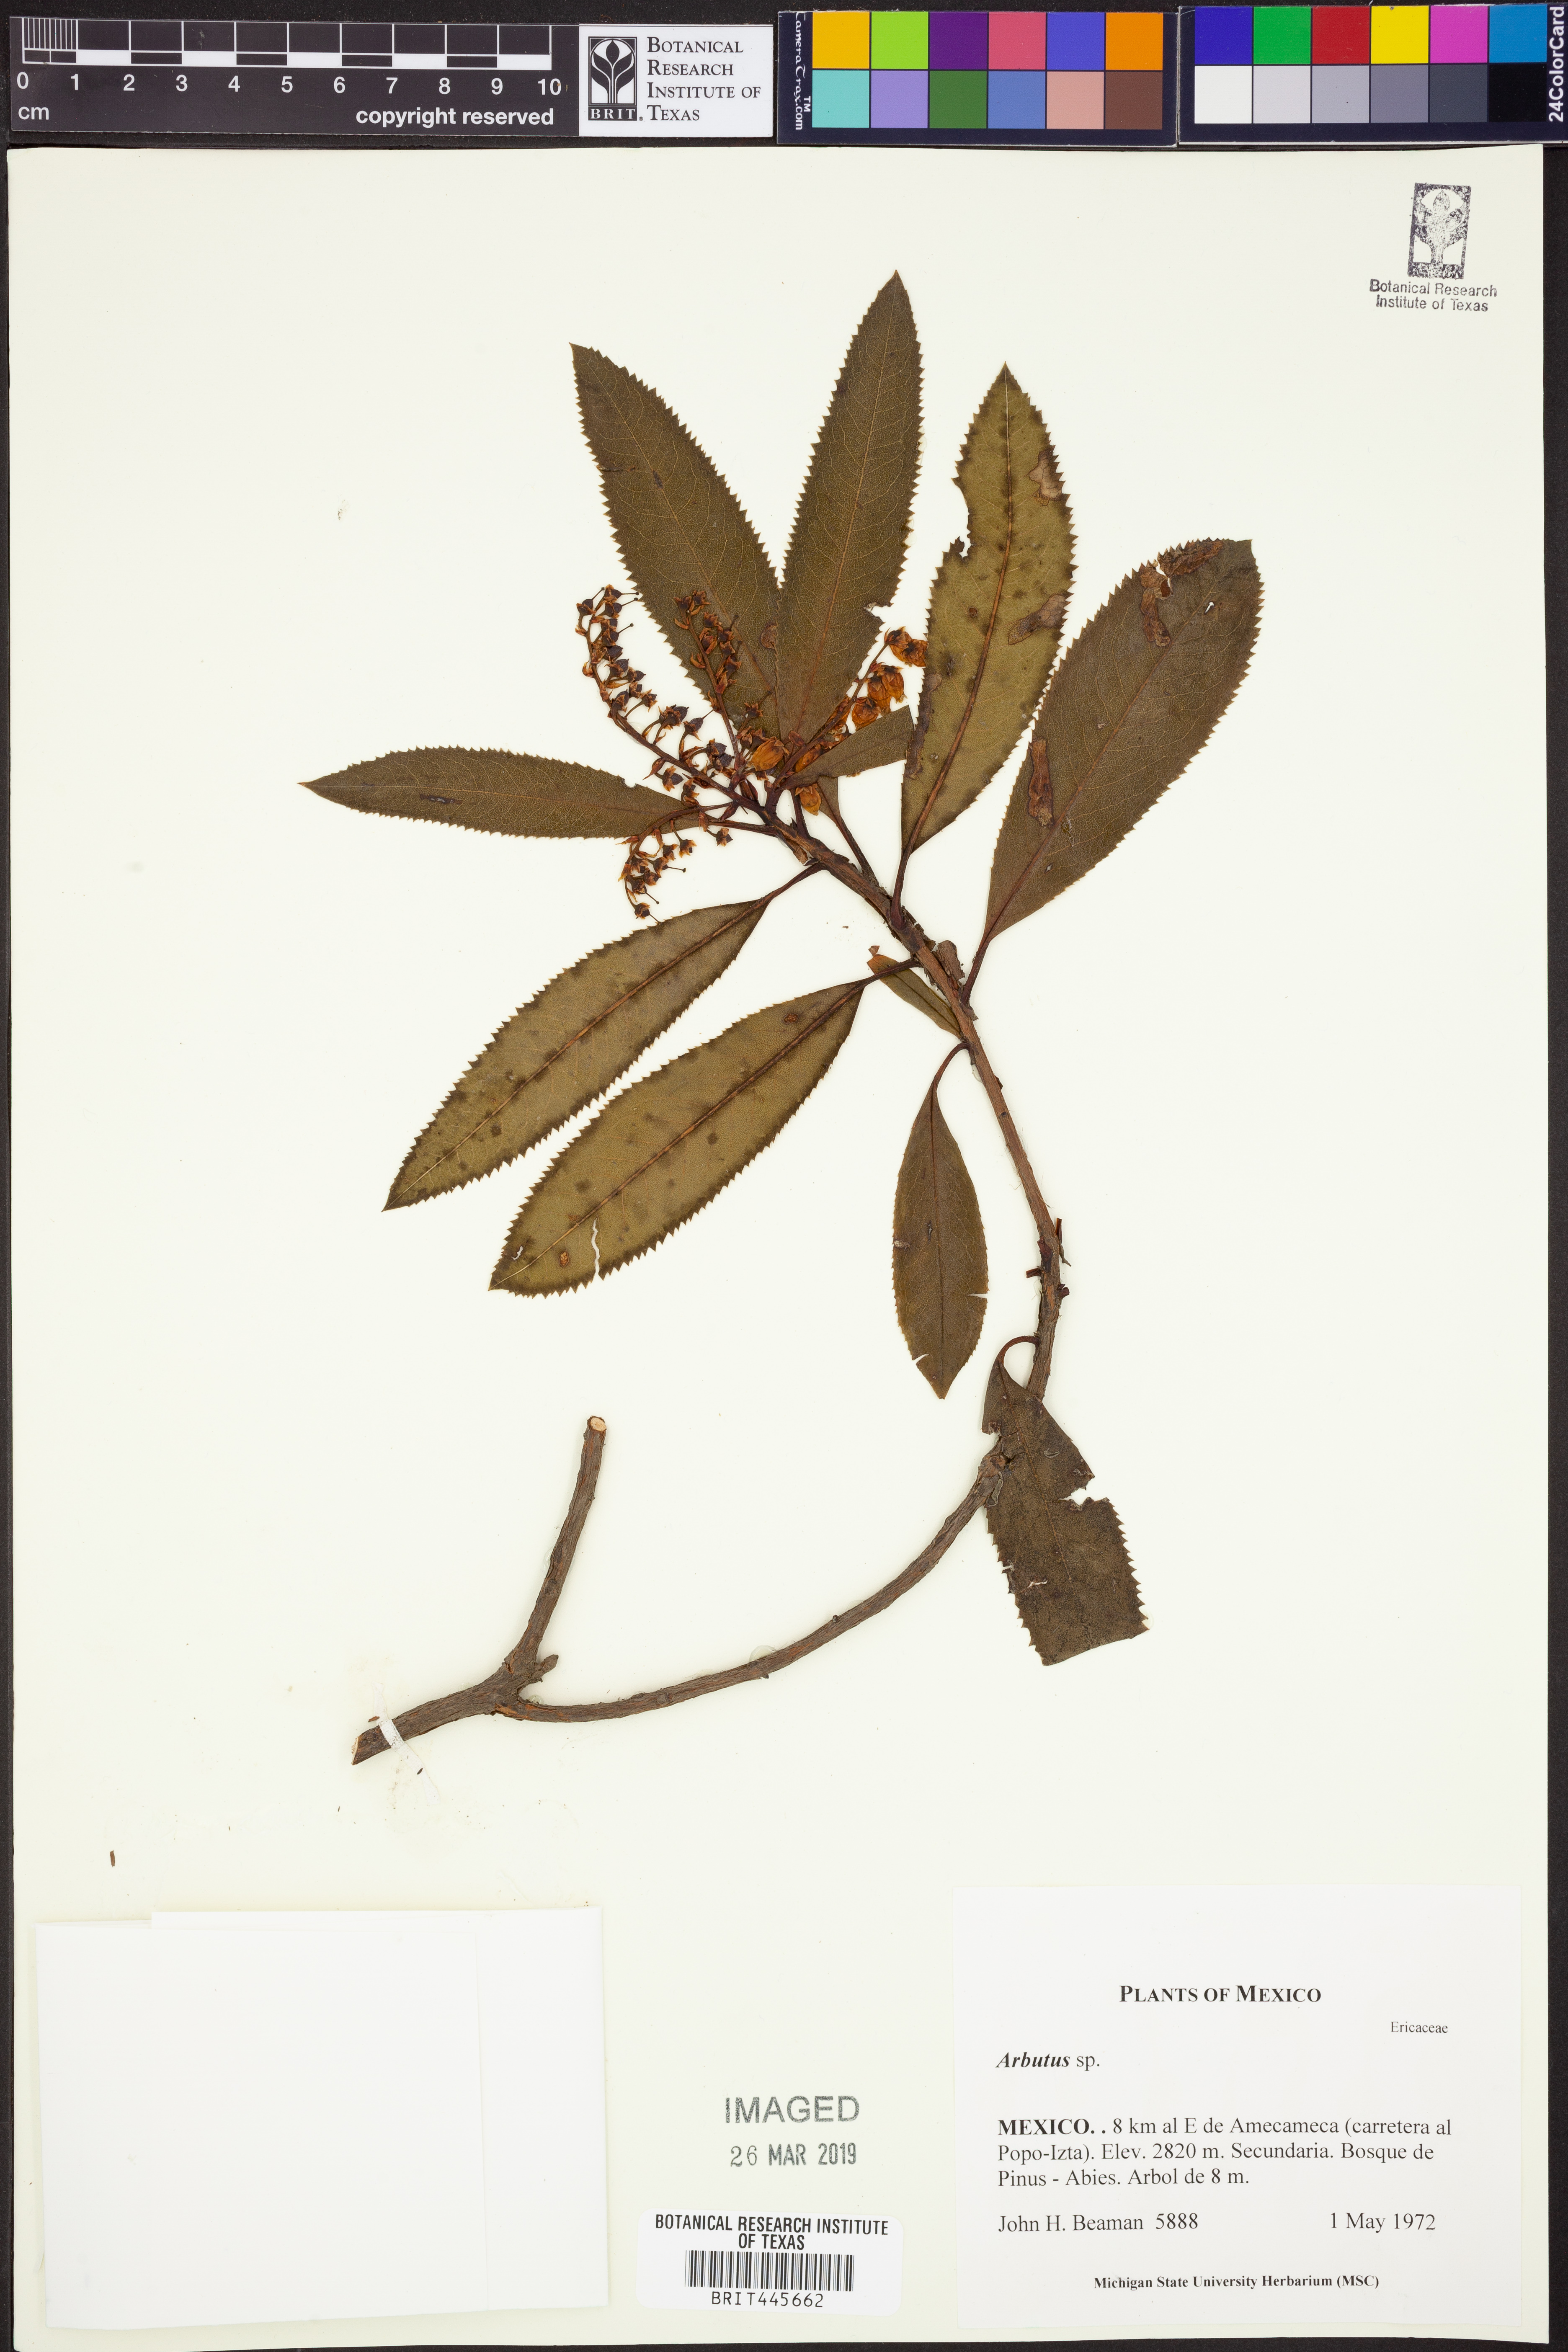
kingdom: Plantae
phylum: Tracheophyta
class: Magnoliopsida
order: Ericales
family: Ericaceae
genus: Arbutus
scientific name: Arbutus
